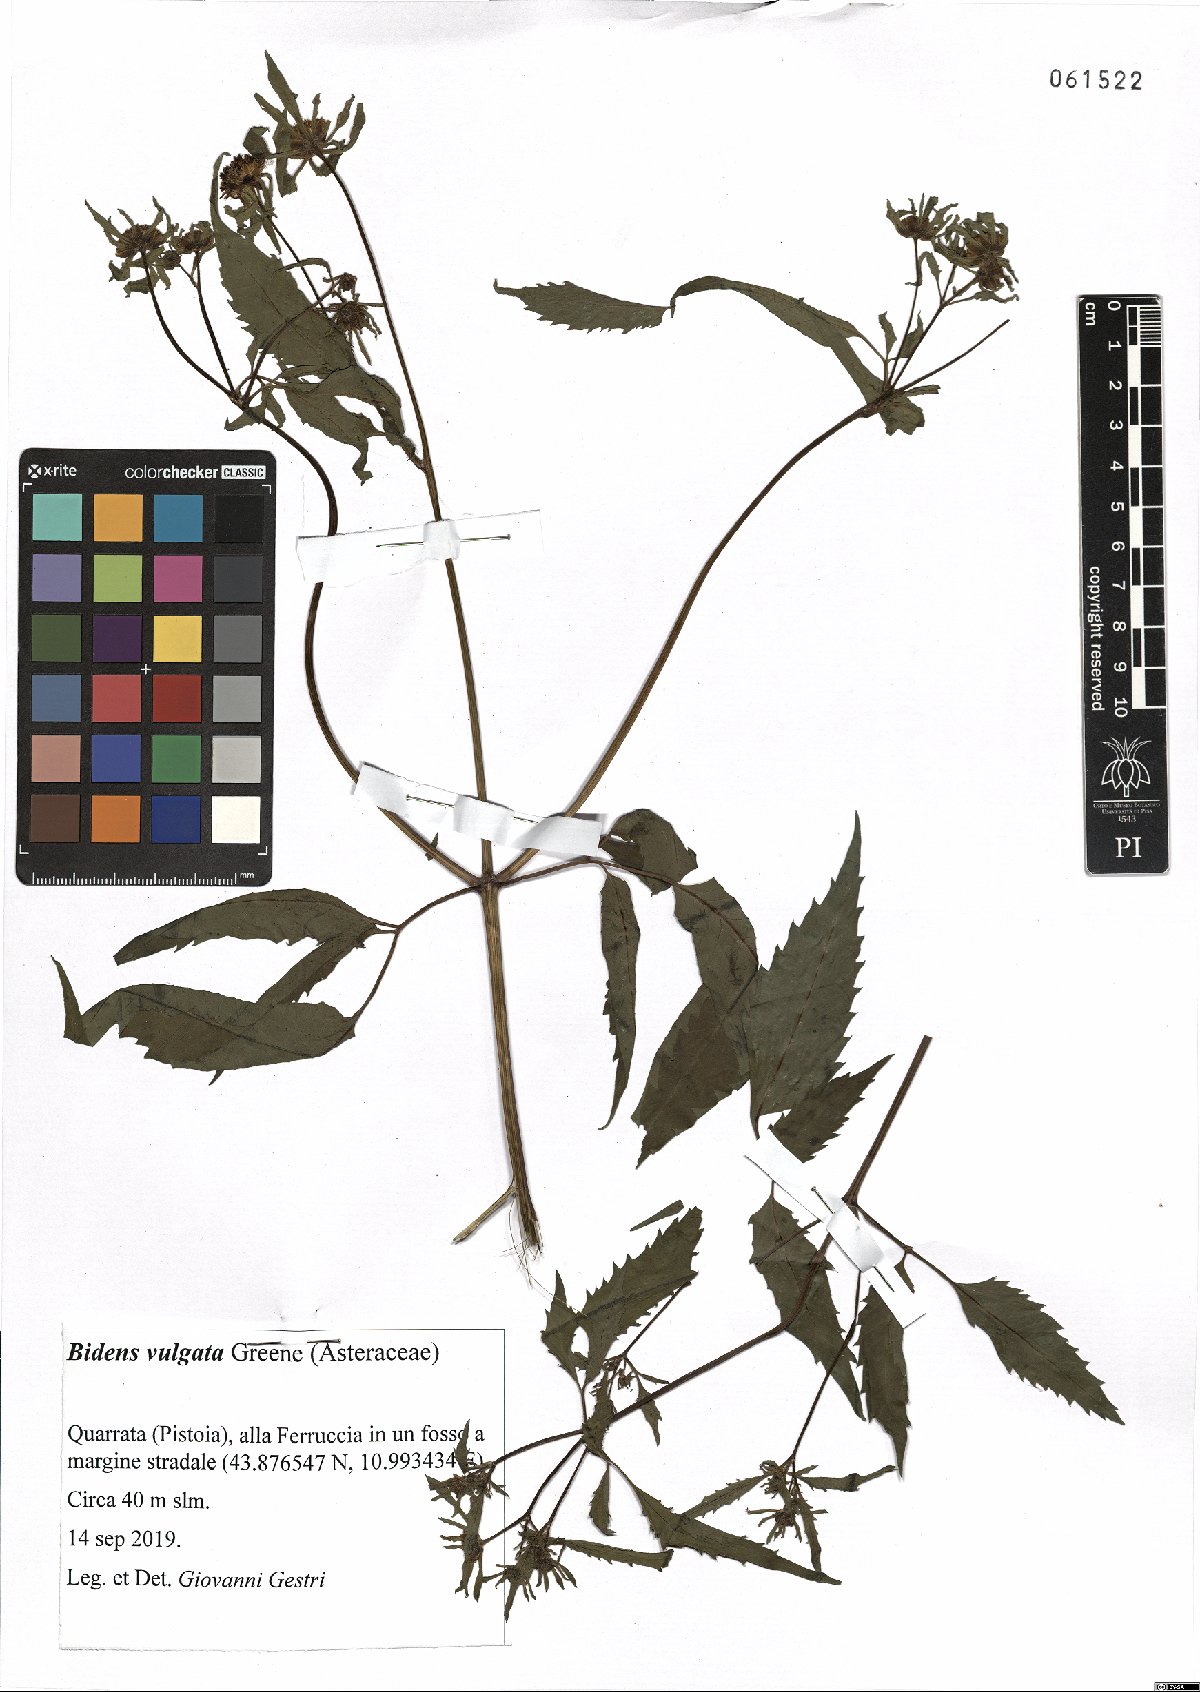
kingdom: Plantae
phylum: Tracheophyta
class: Magnoliopsida
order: Asterales
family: Asteraceae
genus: Bidens
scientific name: Bidens vulgata
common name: Tall beggarticks
